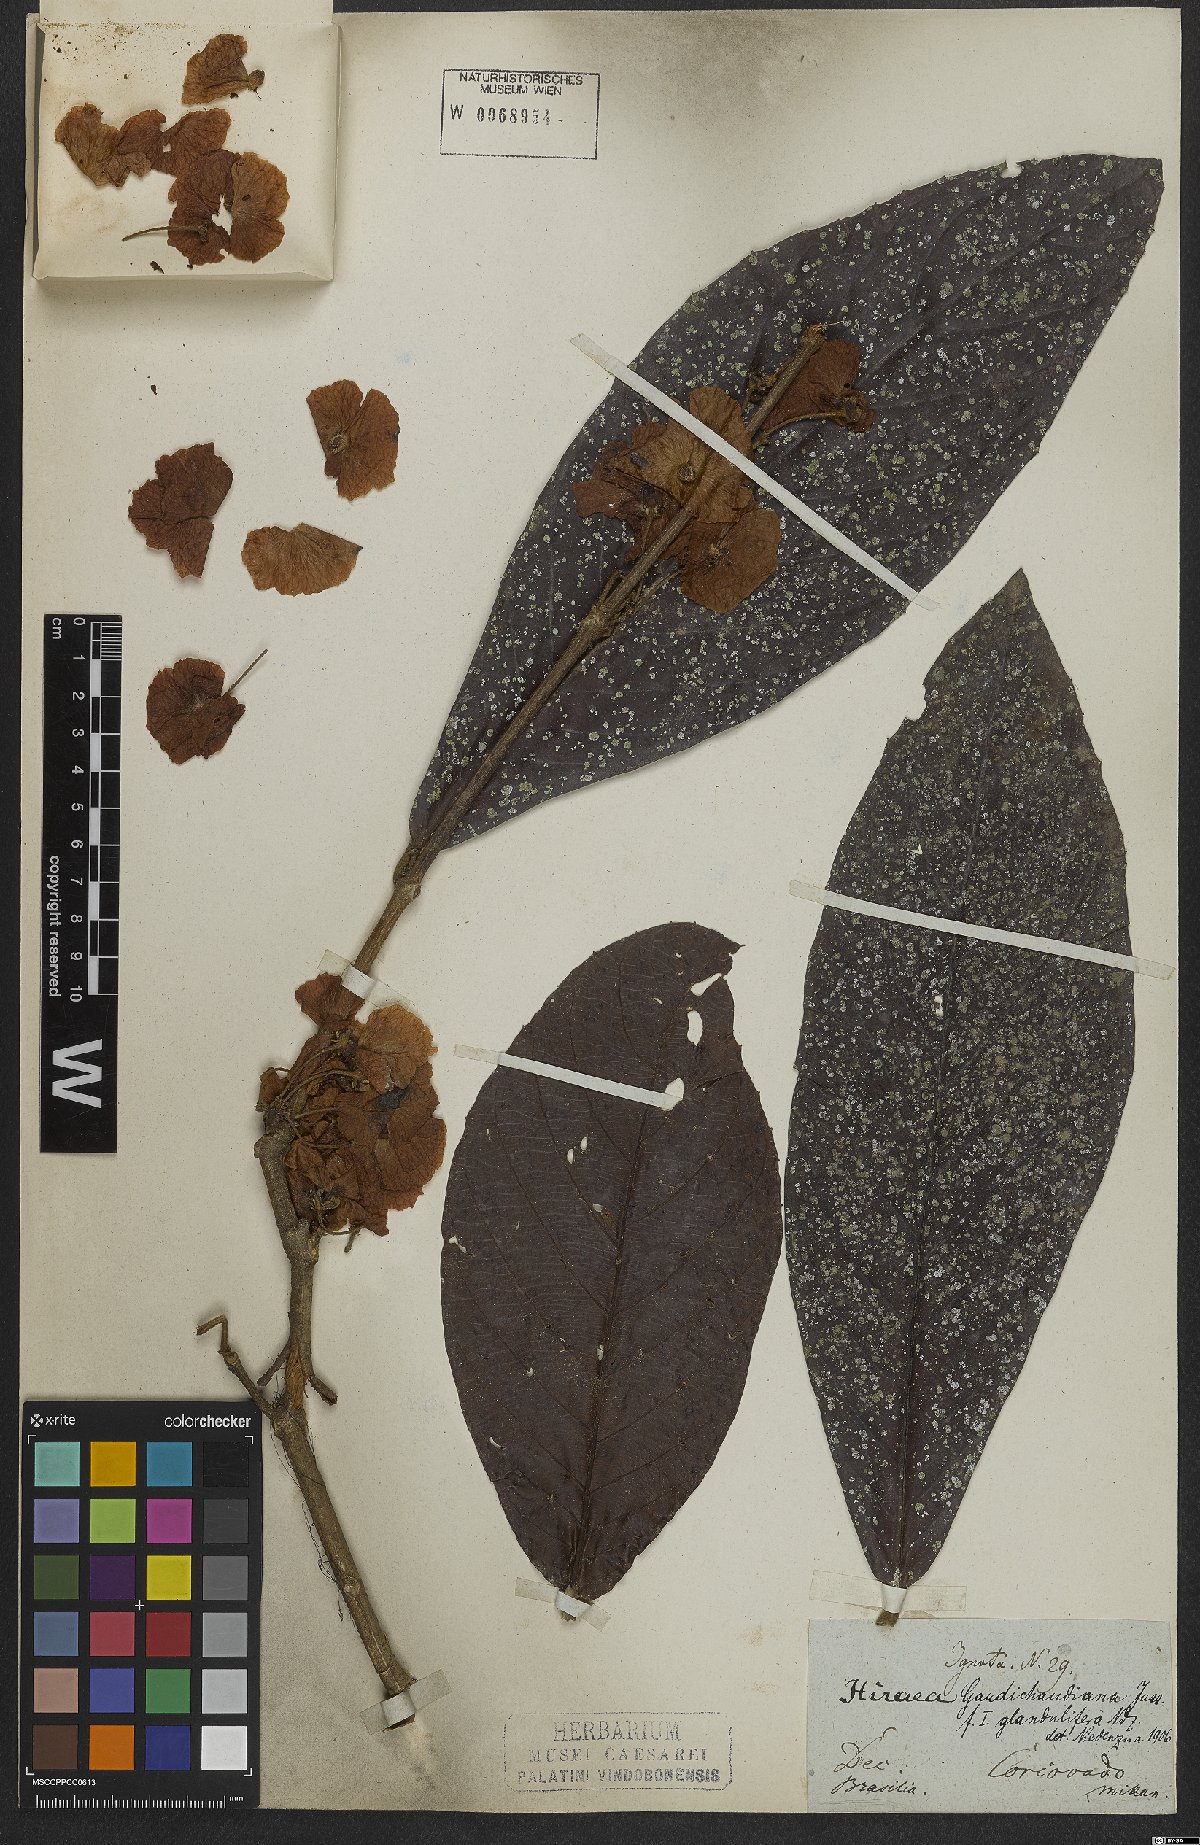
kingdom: Plantae
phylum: Tracheophyta
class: Magnoliopsida
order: Malpighiales
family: Malpighiaceae
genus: Hiraea
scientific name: Hiraea gaudichaudiana
